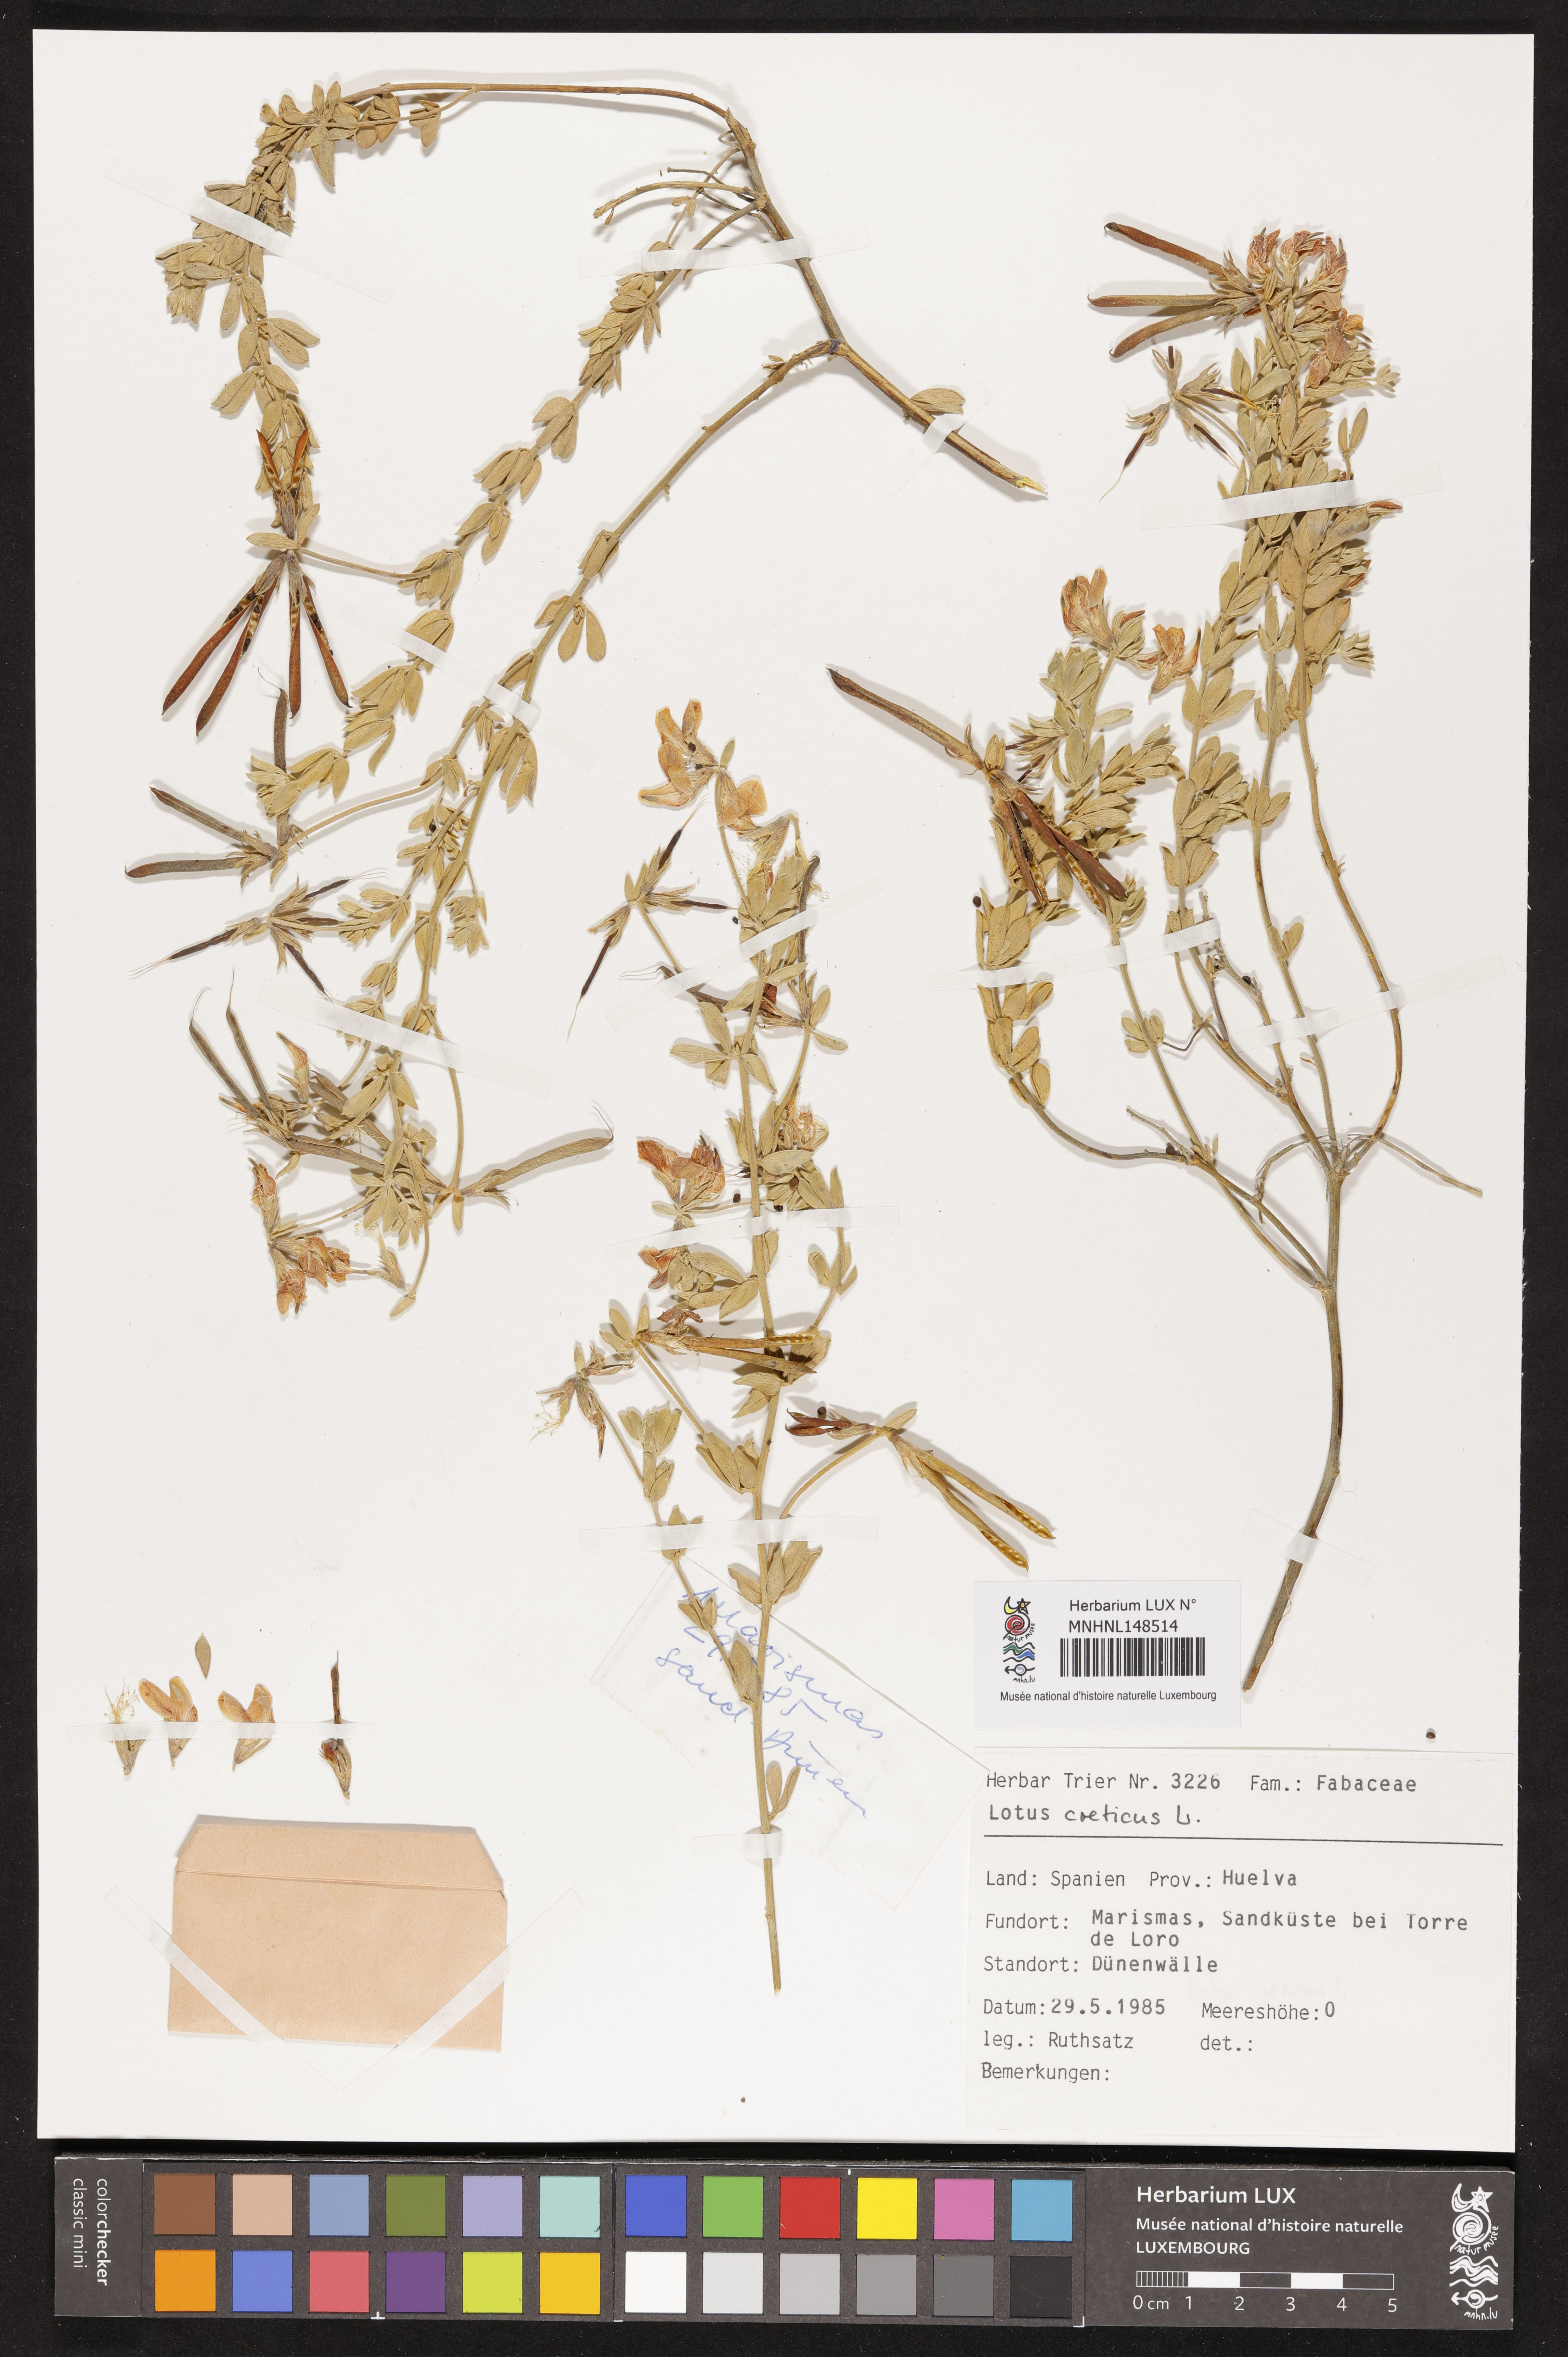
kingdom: Plantae
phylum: Tracheophyta
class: Magnoliopsida
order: Fabales
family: Fabaceae
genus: Lotus
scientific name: Lotus creticus
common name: Cretan bird's-foot trefoil
